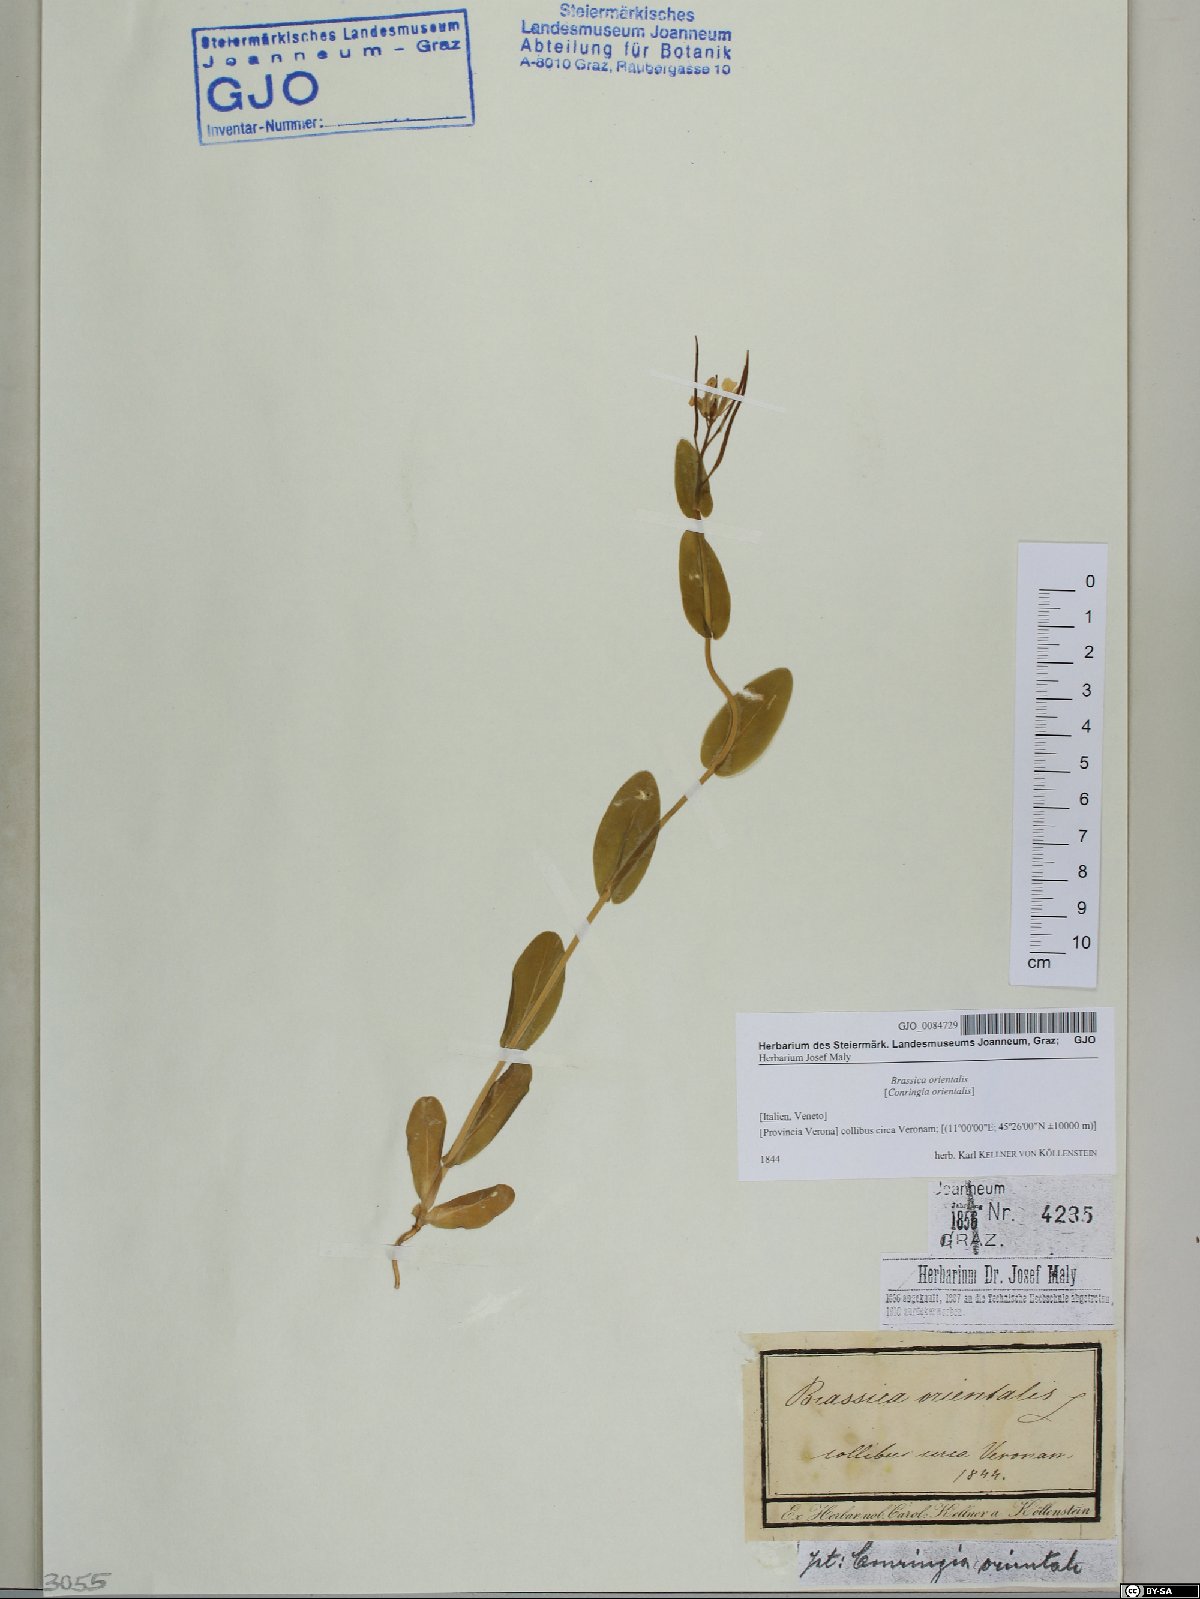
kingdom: Plantae
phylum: Tracheophyta
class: Magnoliopsida
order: Brassicales
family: Brassicaceae
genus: Conringia
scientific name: Conringia orientalis
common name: Hare's ear mustard
